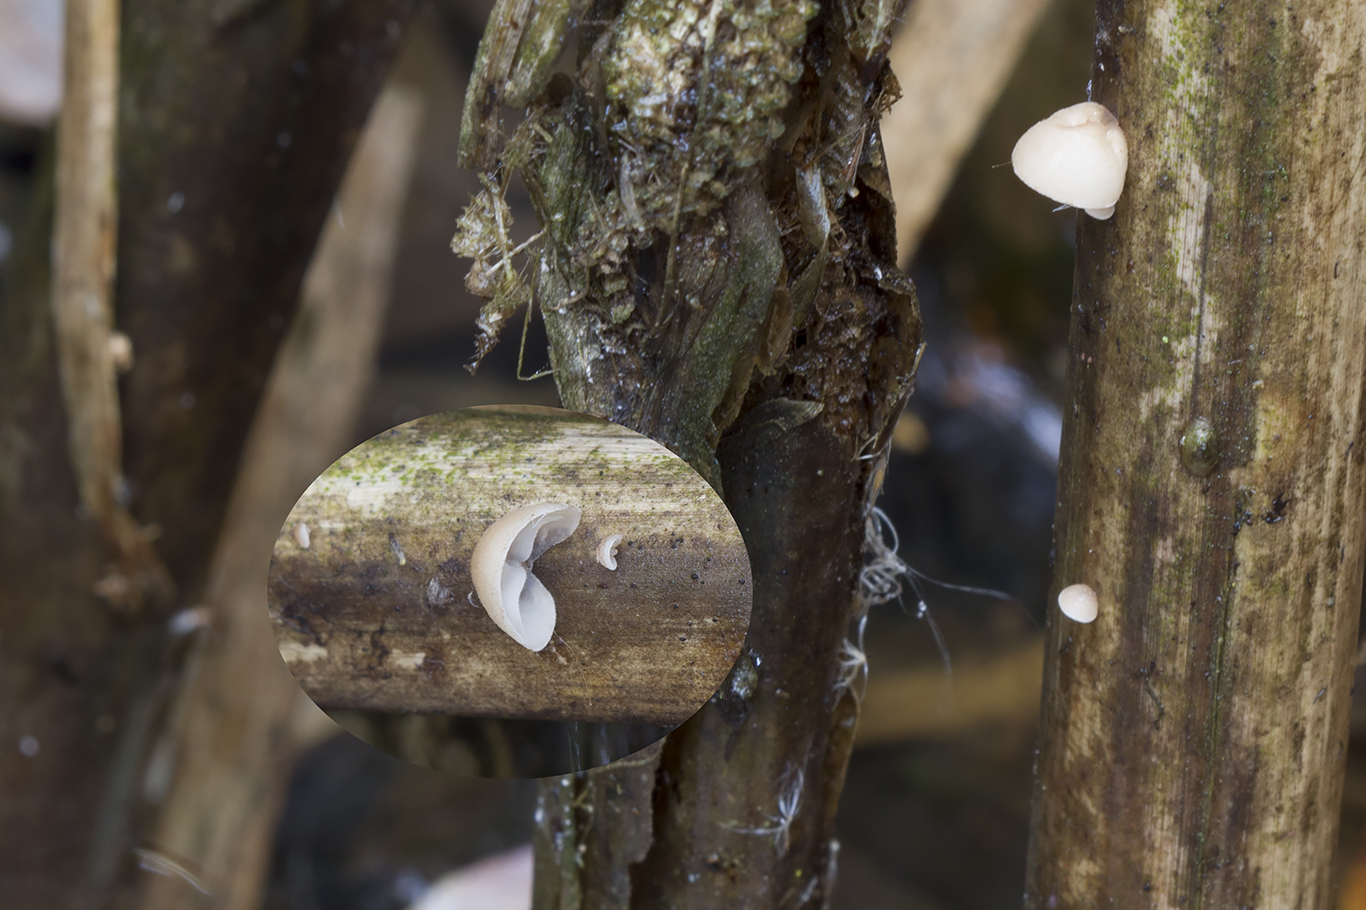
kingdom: Fungi
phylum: Basidiomycota
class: Agaricomycetes
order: Agaricales
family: Physalacriaceae
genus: Gloiocephala
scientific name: Gloiocephala menieri
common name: dunhammer-spatelhat
